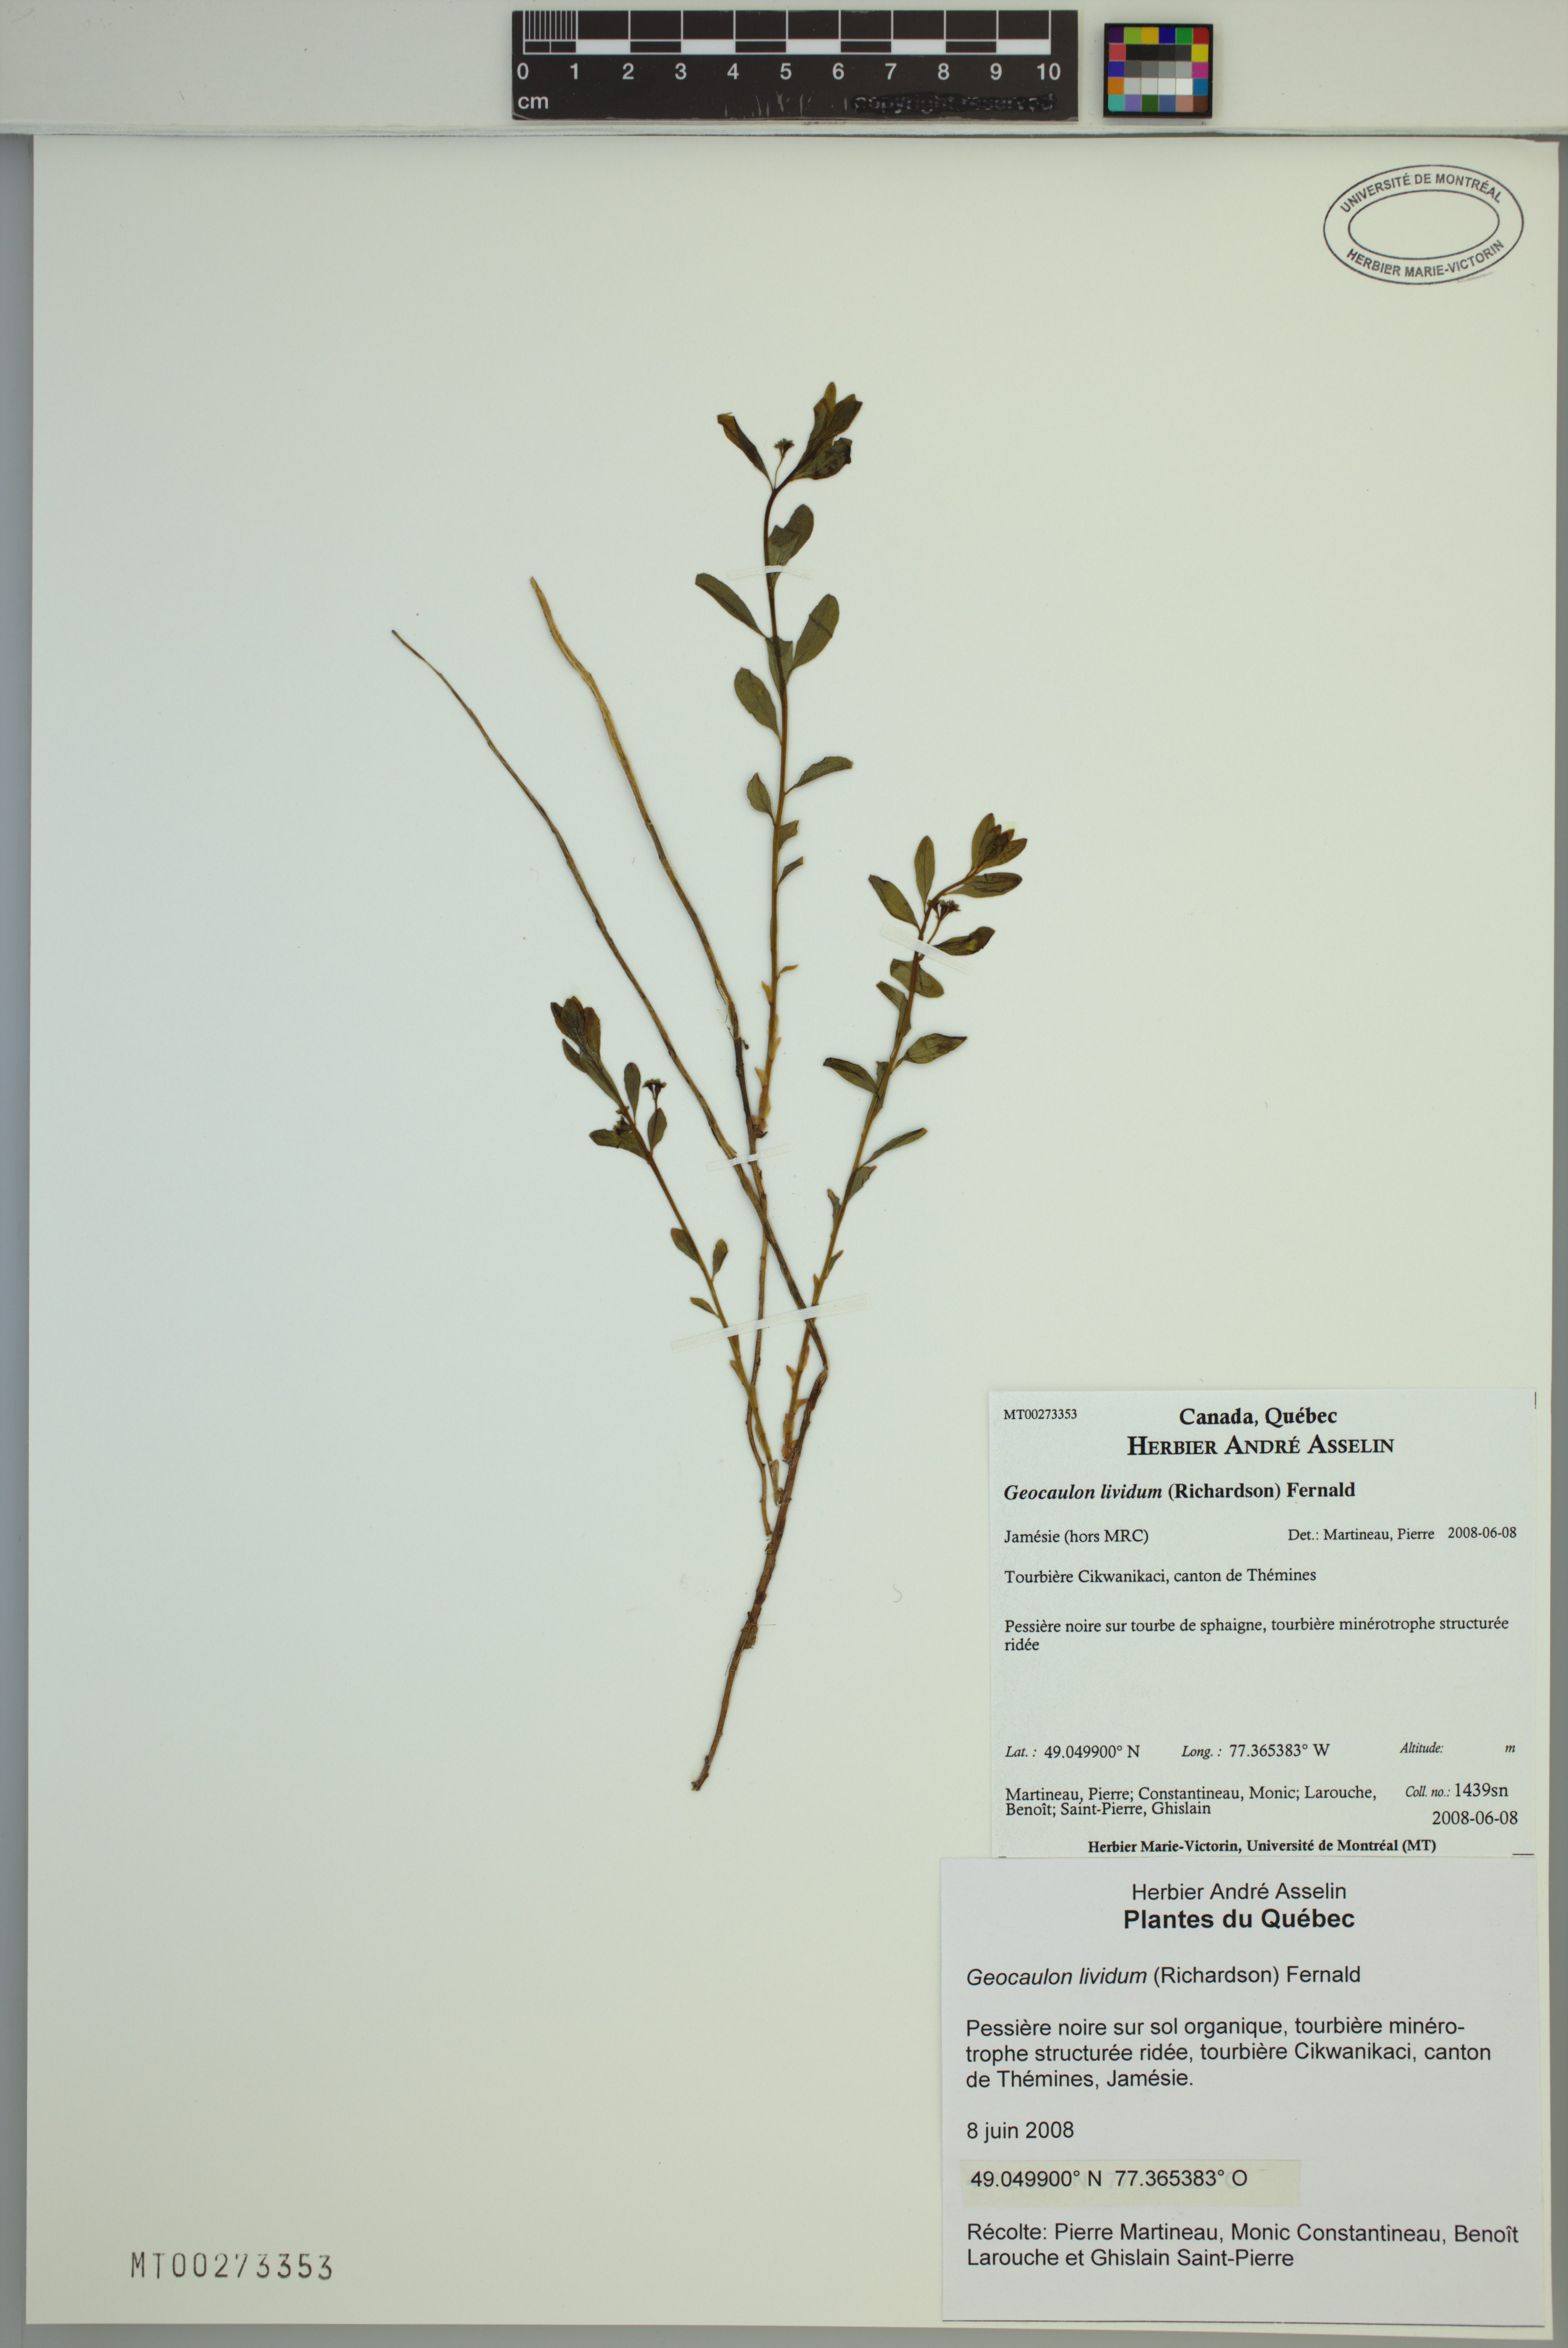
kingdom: Plantae
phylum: Tracheophyta
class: Magnoliopsida
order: Santalales
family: Comandraceae
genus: Geocaulon
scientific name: Geocaulon lividum
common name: Earthberry
